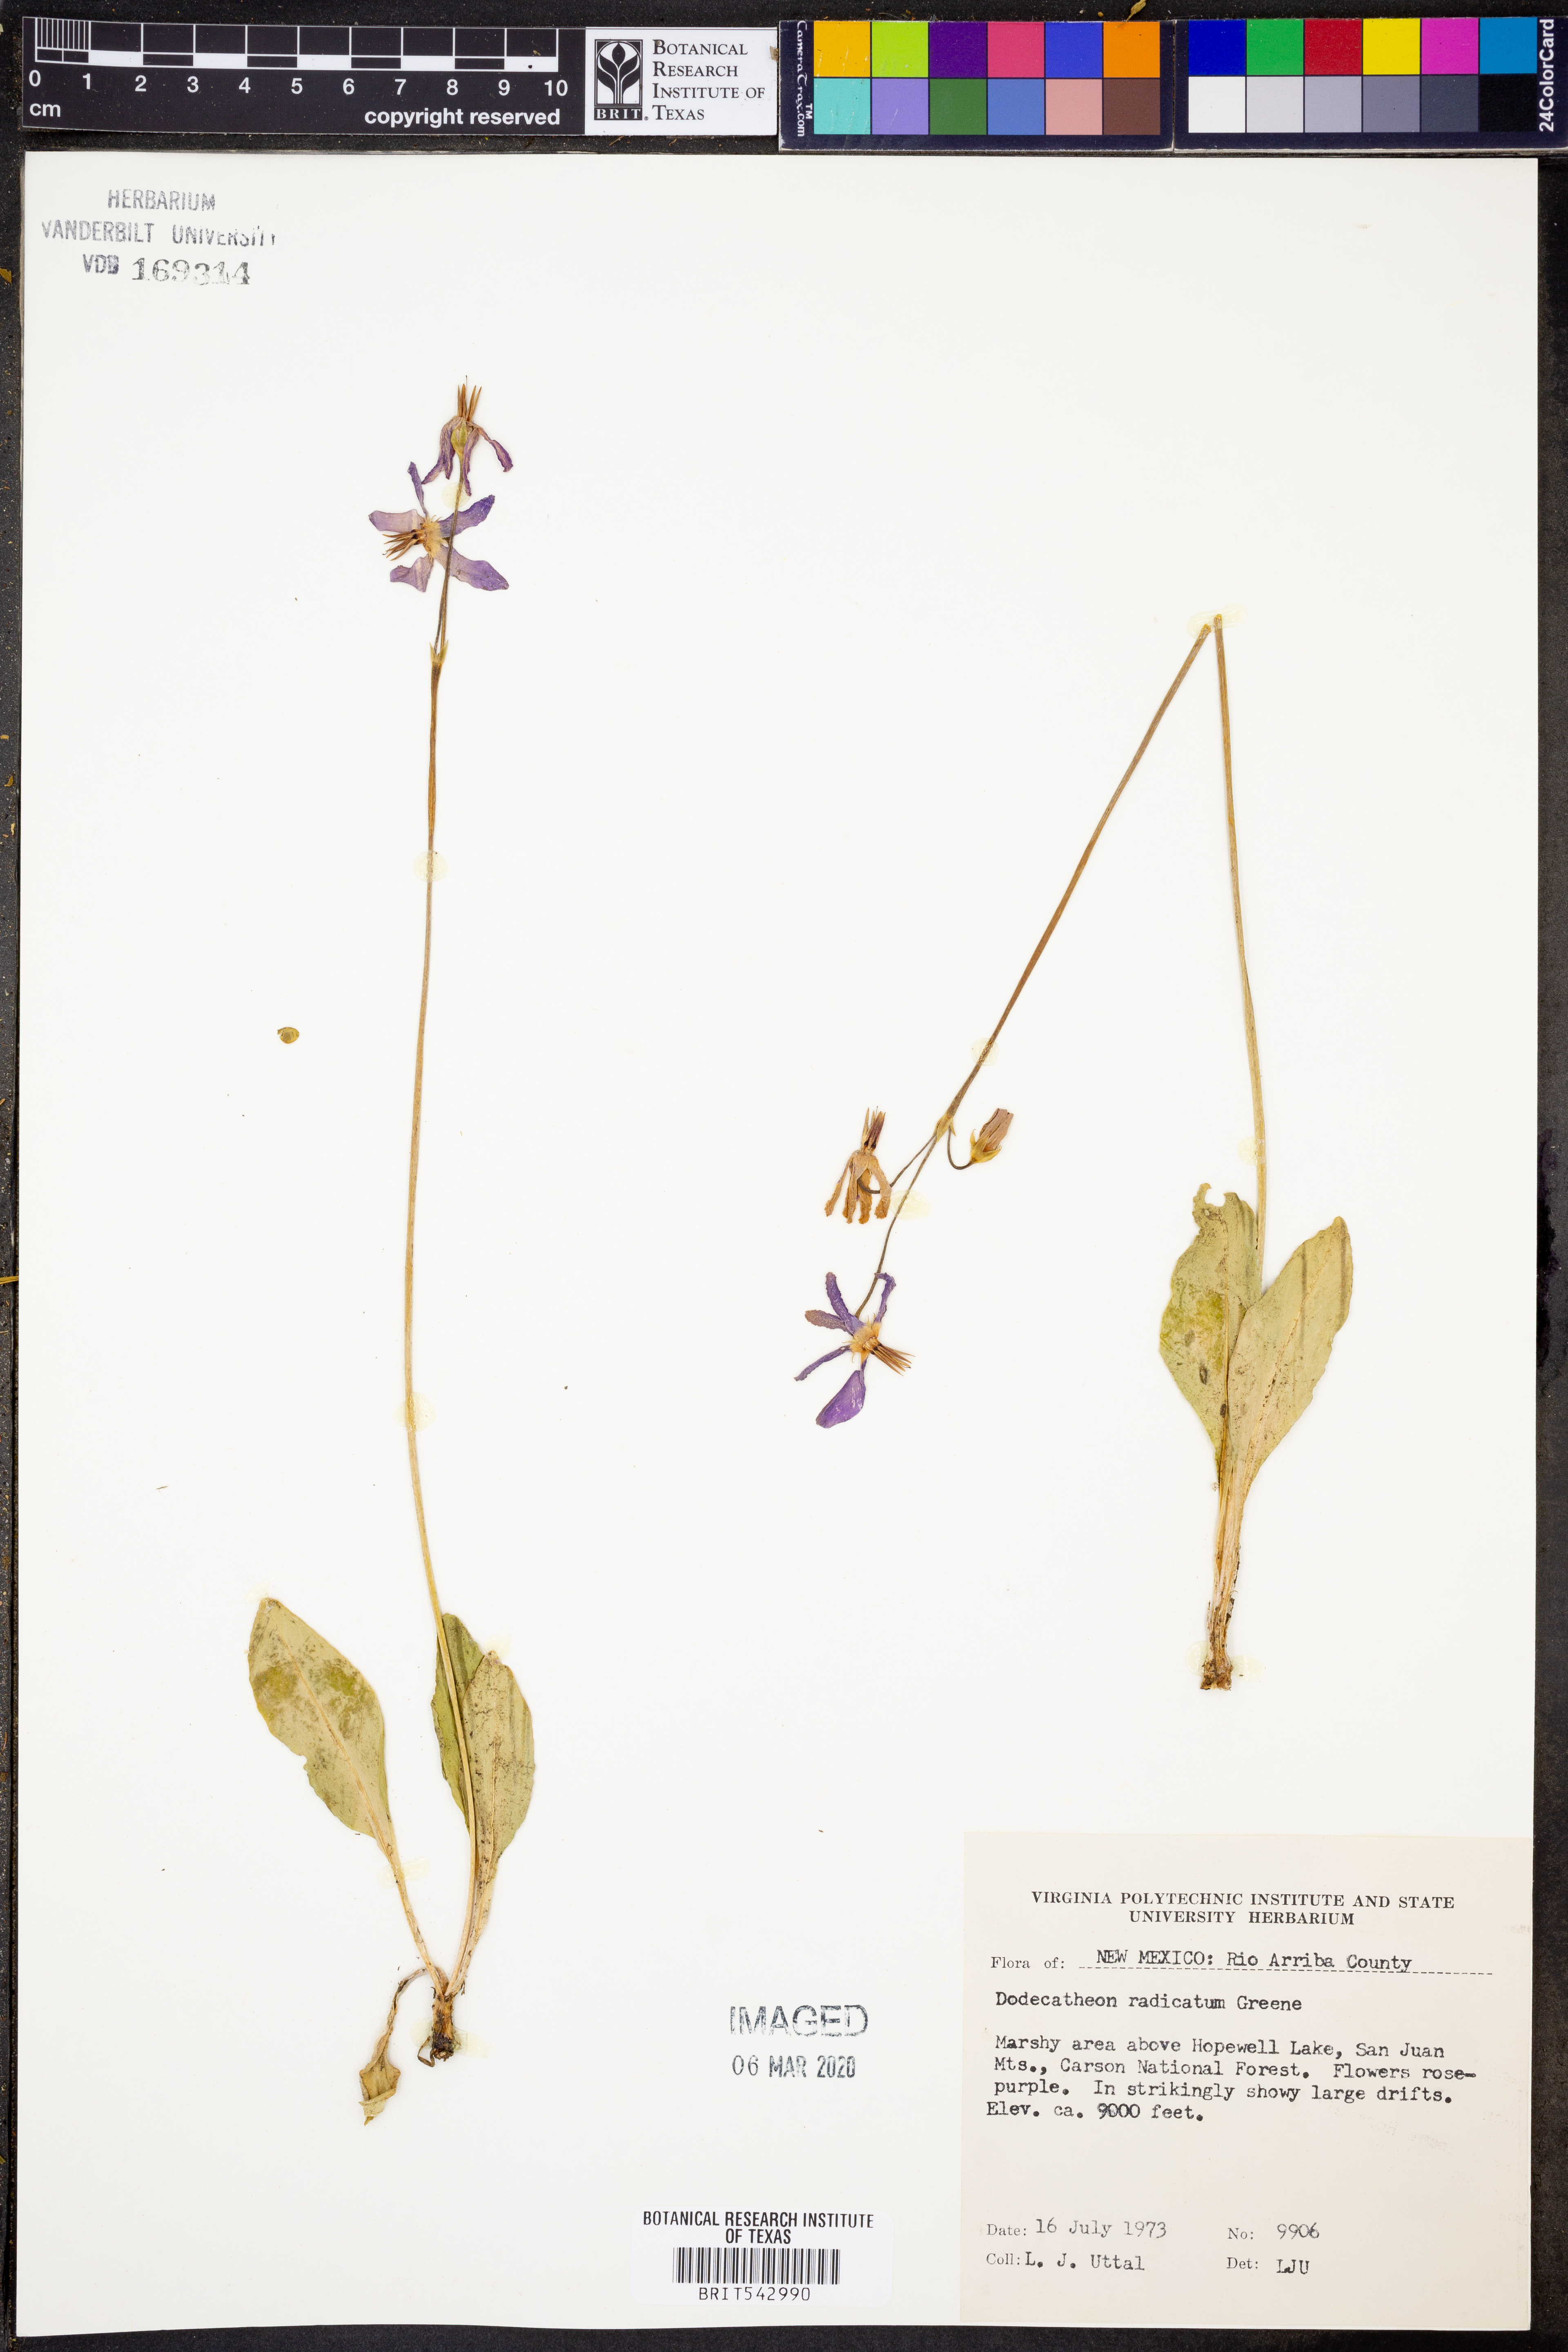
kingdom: Plantae
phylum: Tracheophyta
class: Magnoliopsida
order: Ericales
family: Primulaceae
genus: Dodecatheon
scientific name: Dodecatheon pulchellum
